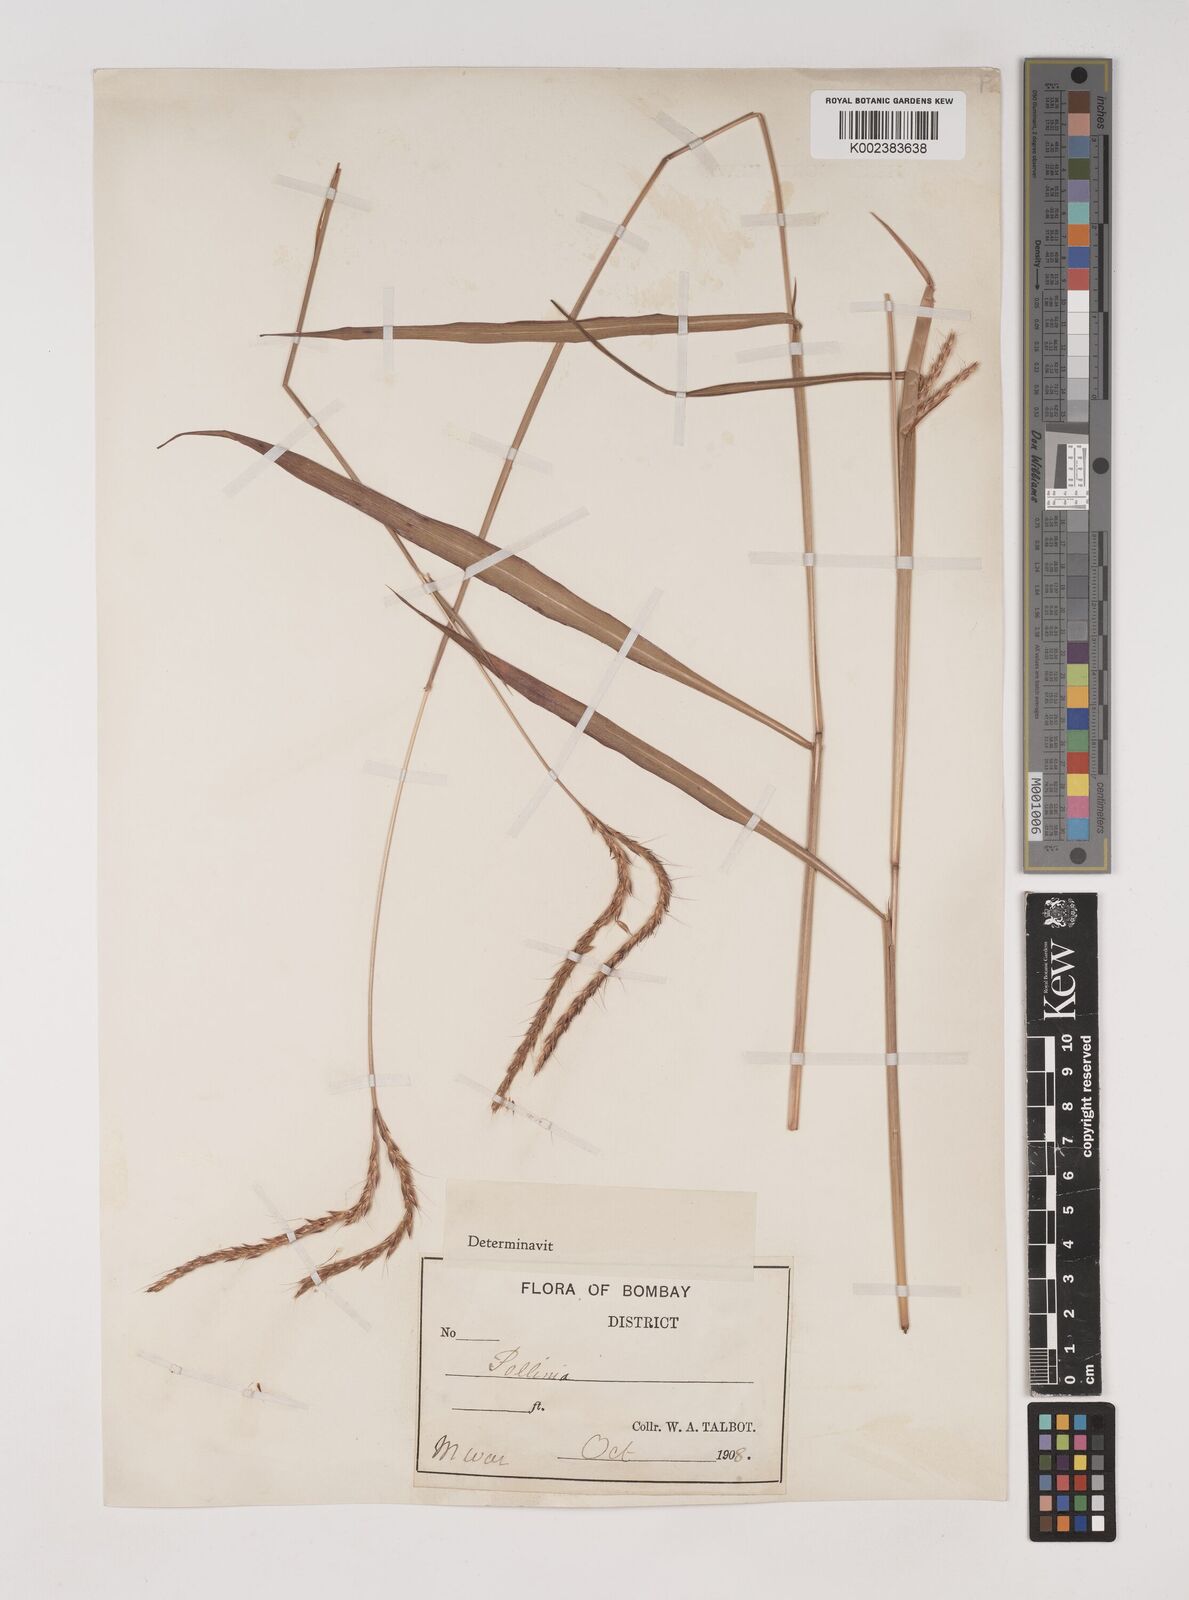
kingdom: Plantae
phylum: Tracheophyta
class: Liliopsida
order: Poales
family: Poaceae
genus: Ischaemum
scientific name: Ischaemum
